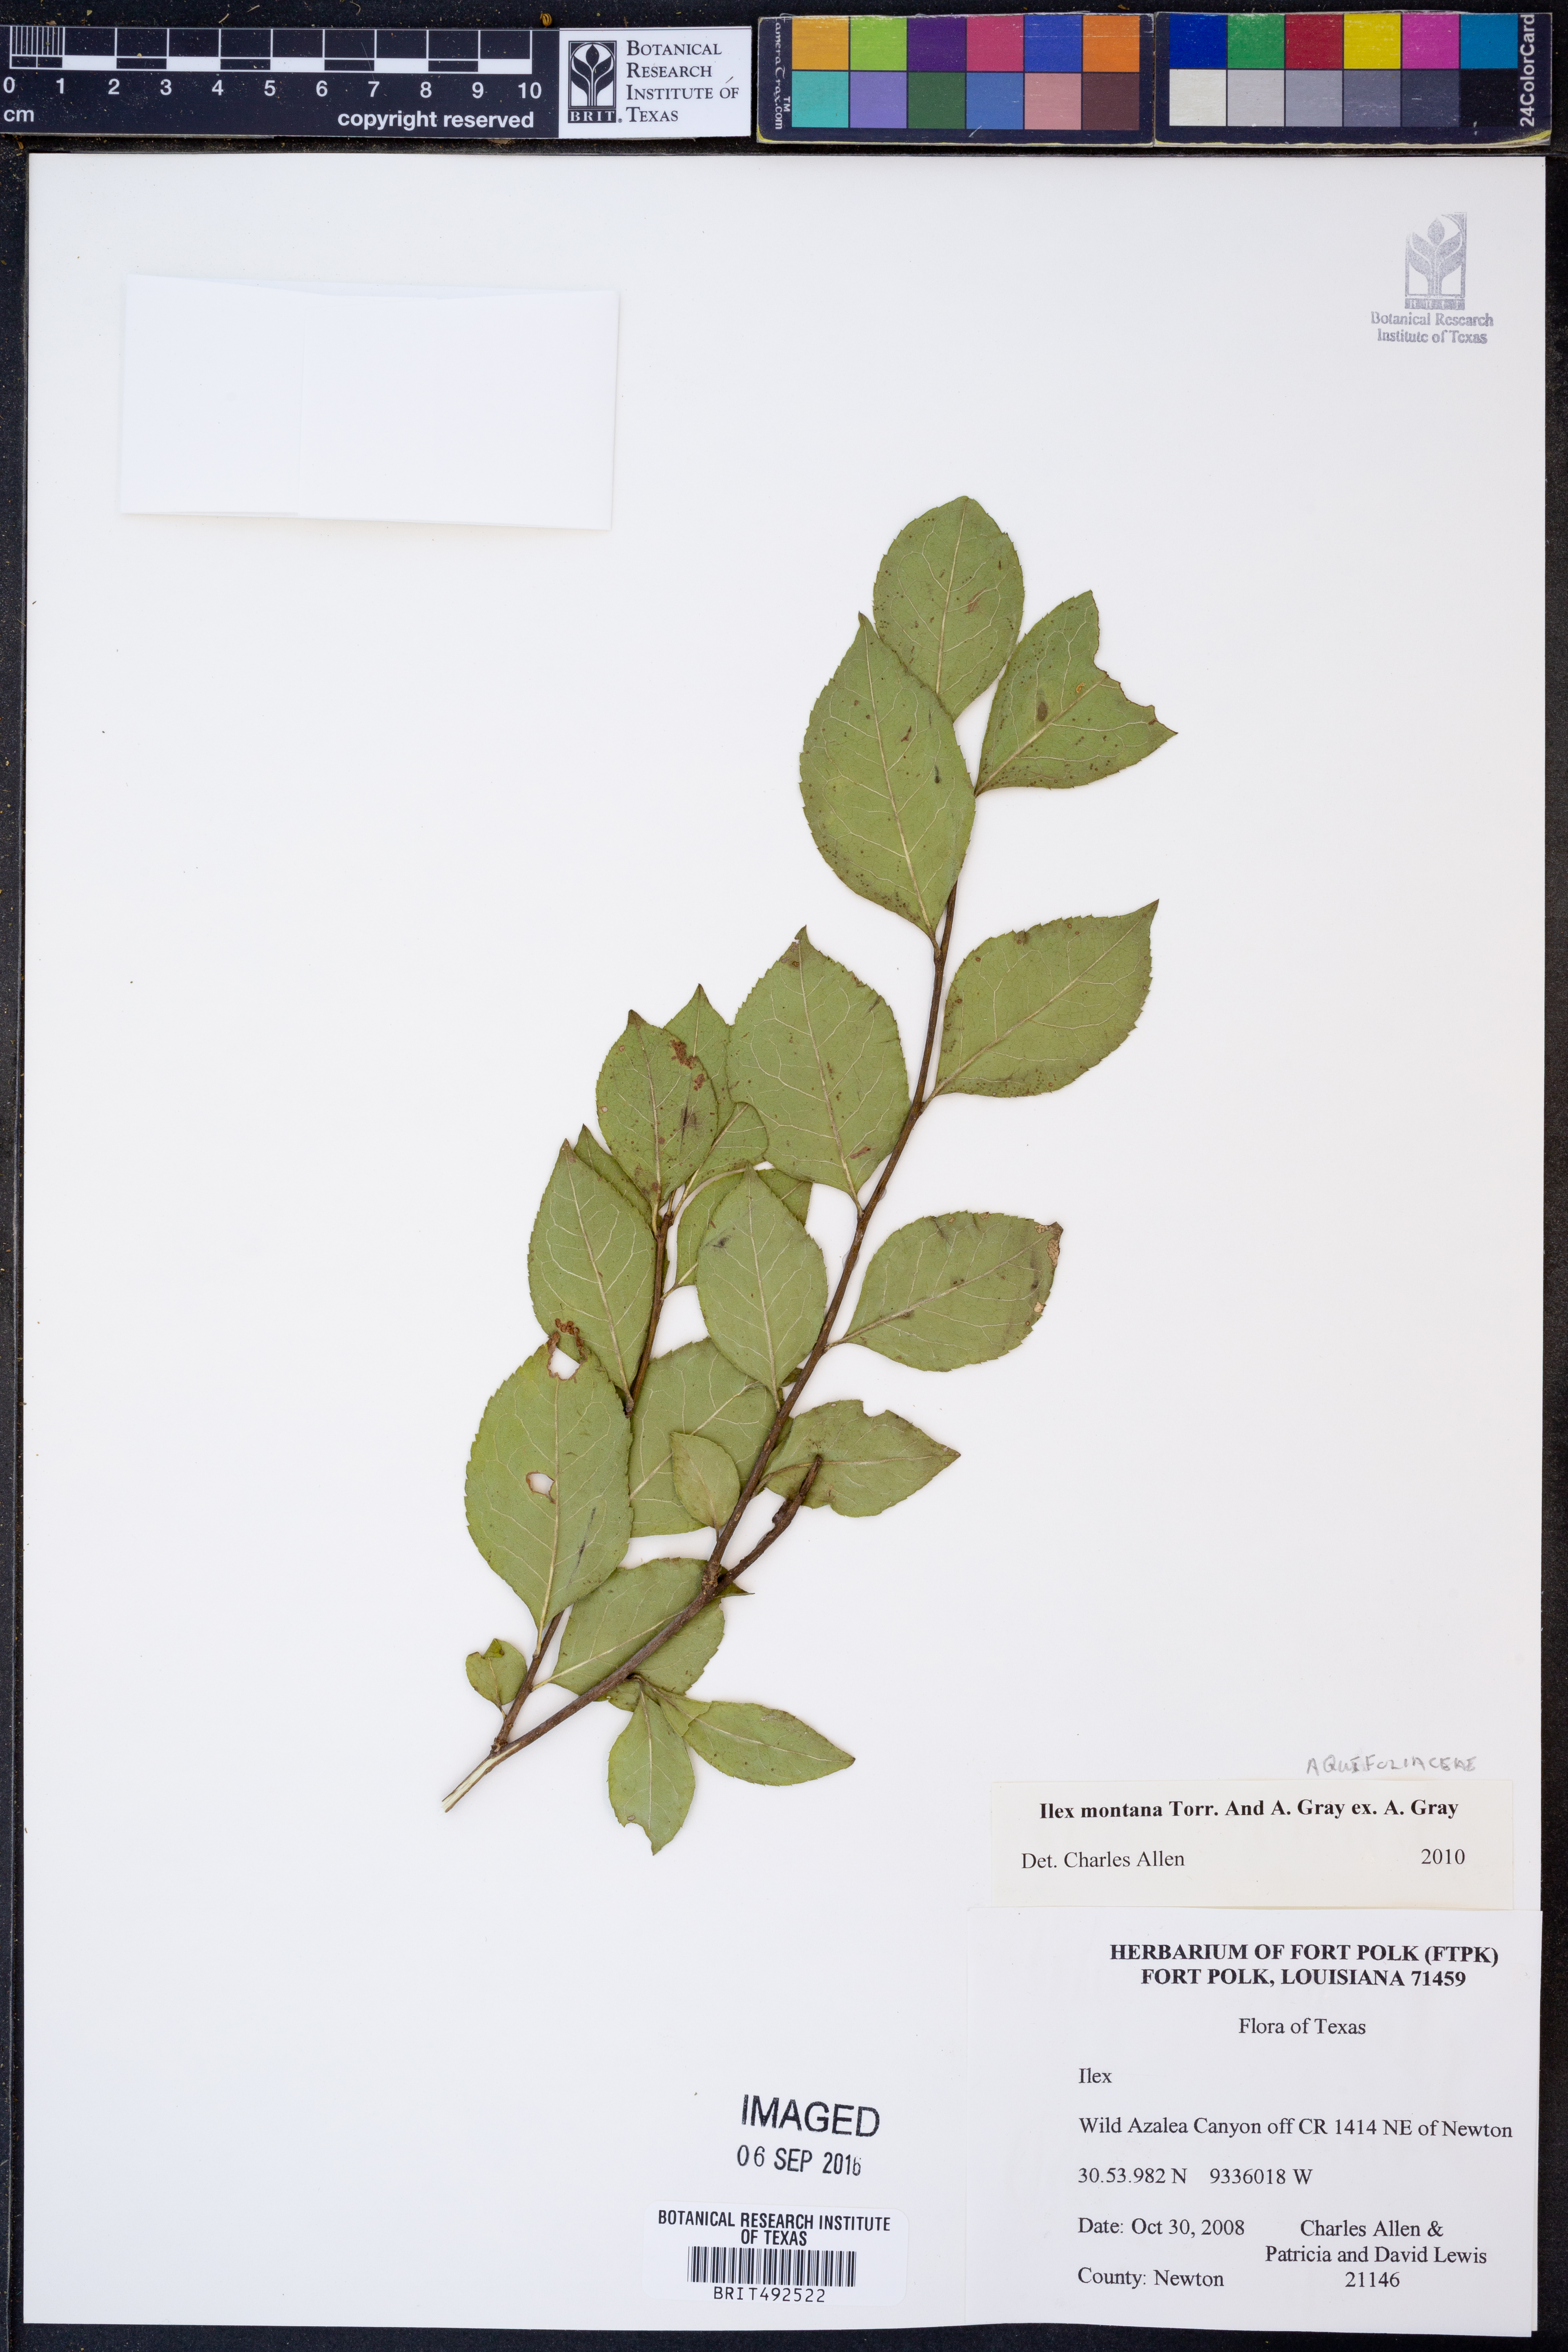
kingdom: Plantae
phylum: Tracheophyta
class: Magnoliopsida
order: Aquifoliales
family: Aquifoliaceae
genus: Ilex
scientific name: Ilex montana
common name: Mountain winterberry
